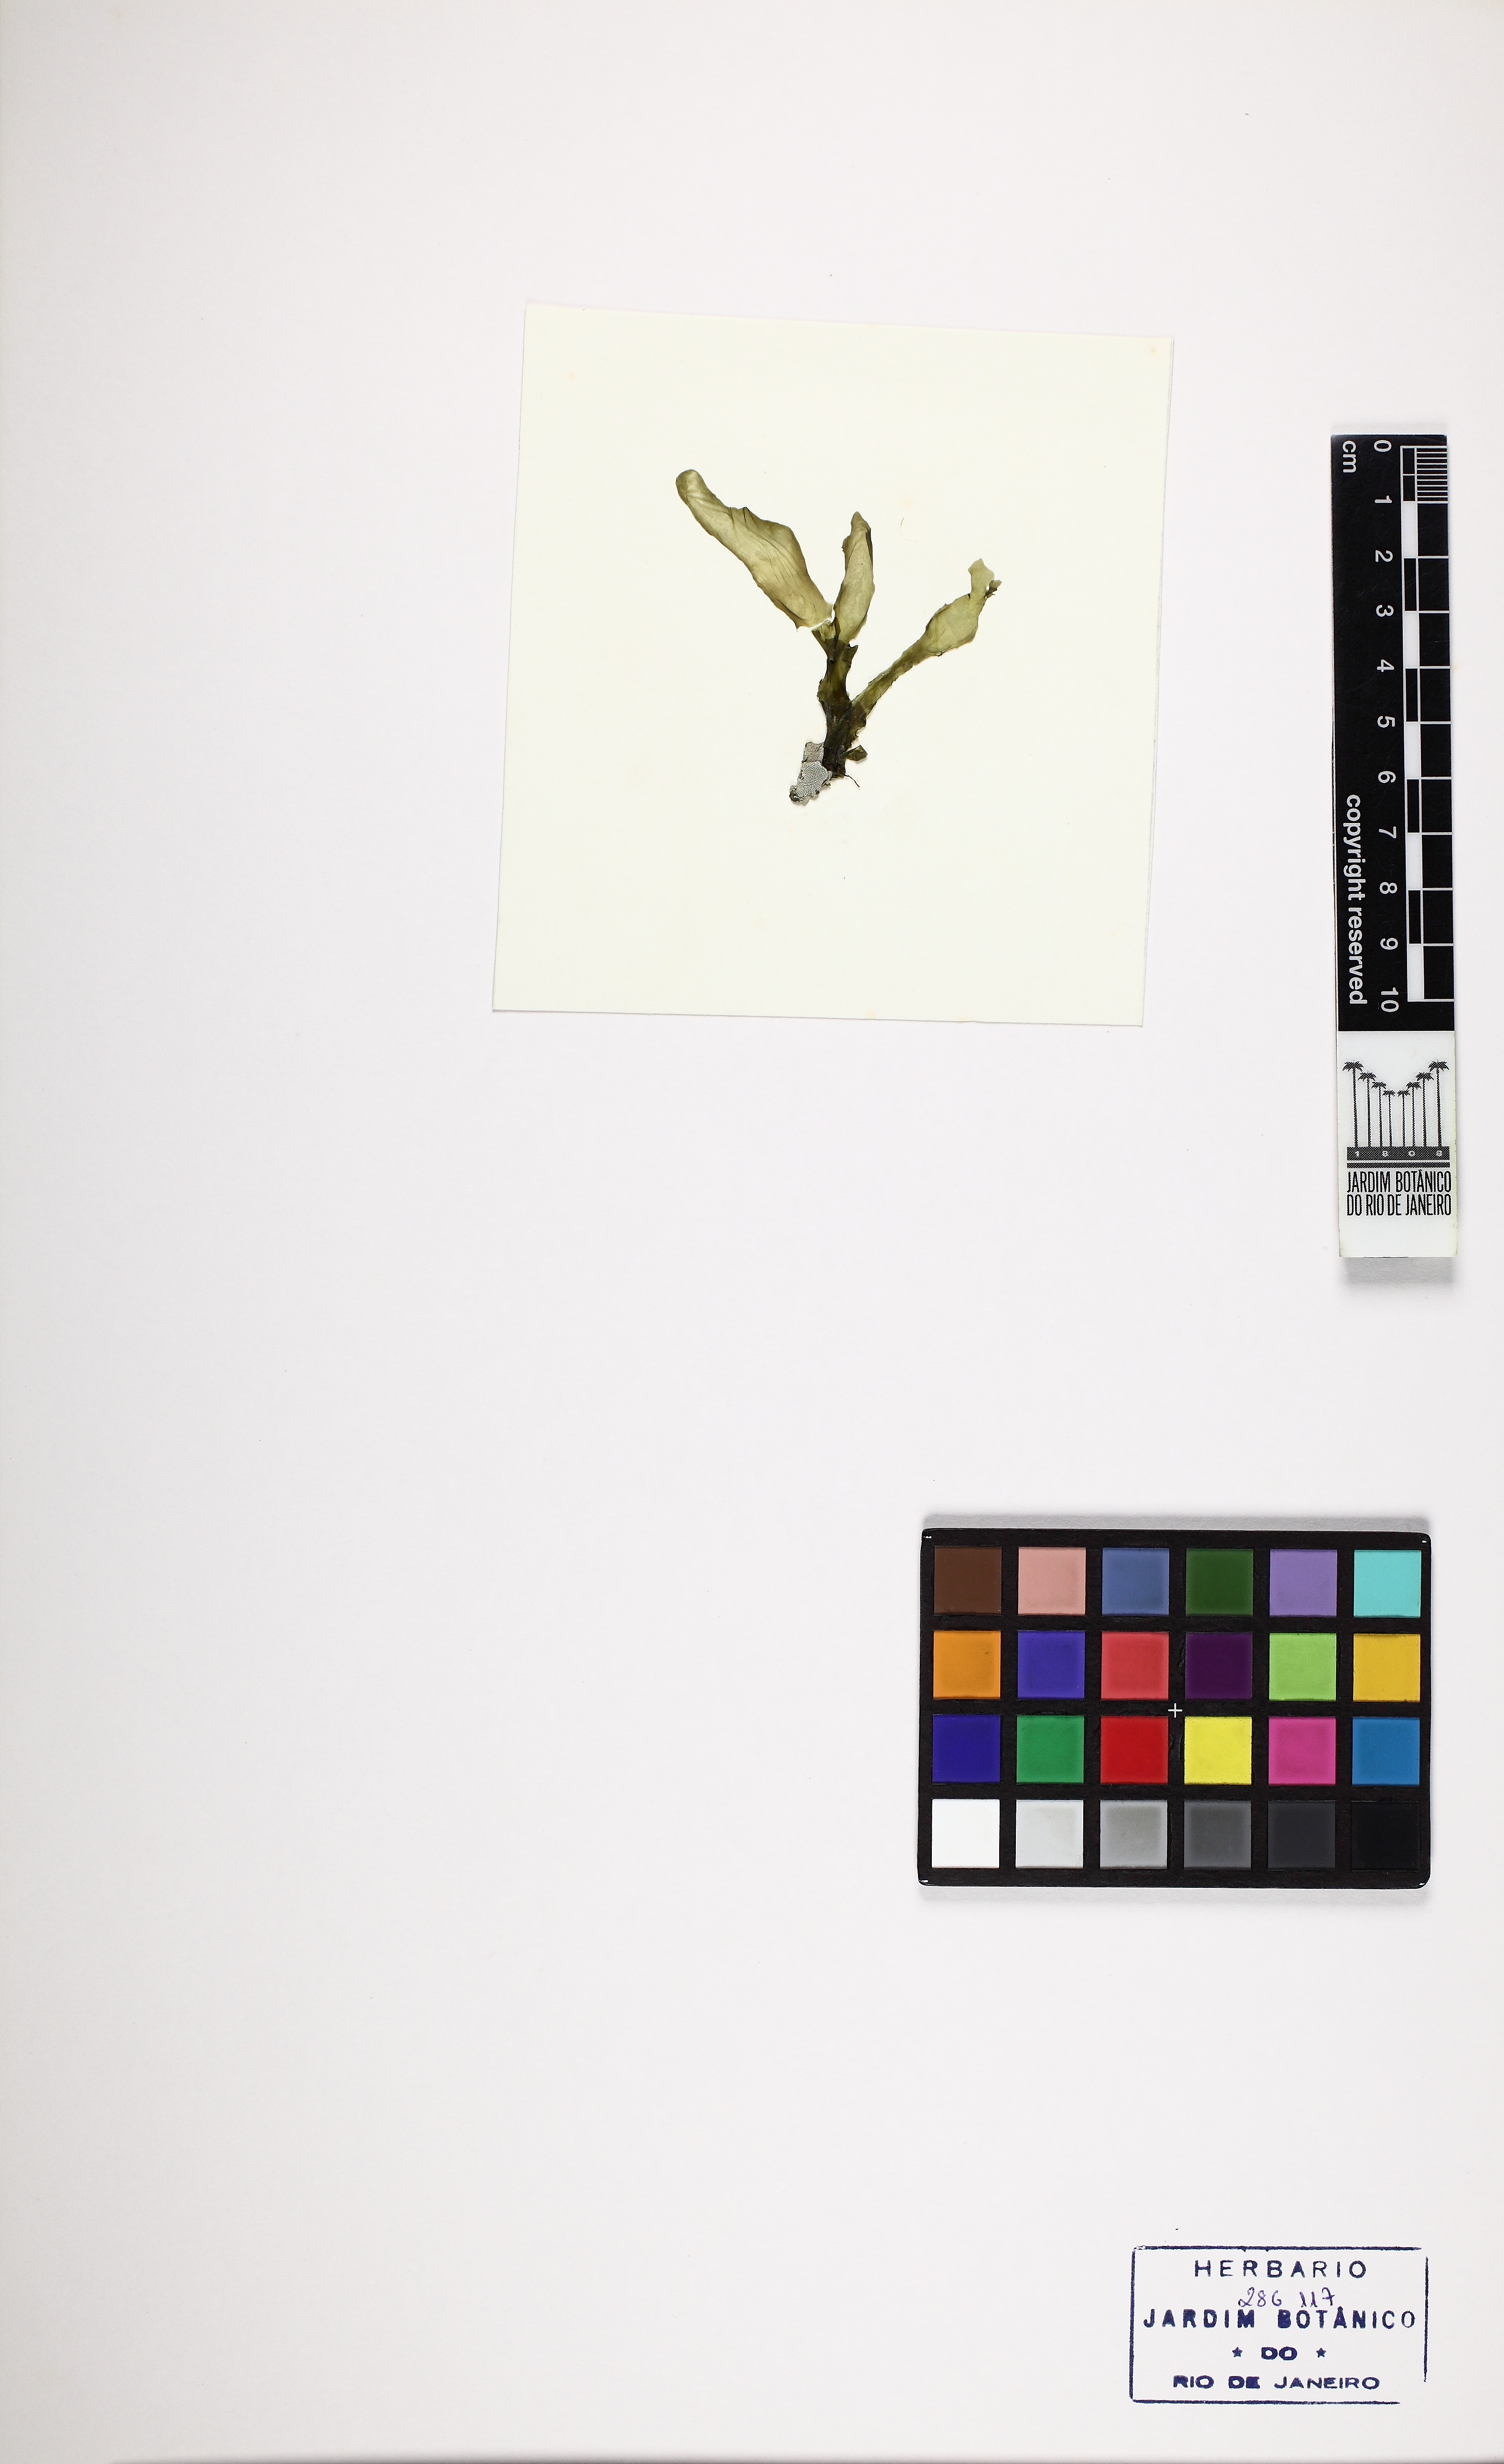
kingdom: Plantae
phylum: Chlorophyta
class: Ulvophyceae
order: Ulvales
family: Ulvaceae
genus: Ulva
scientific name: Ulva lactuca
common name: Sea lettuce
